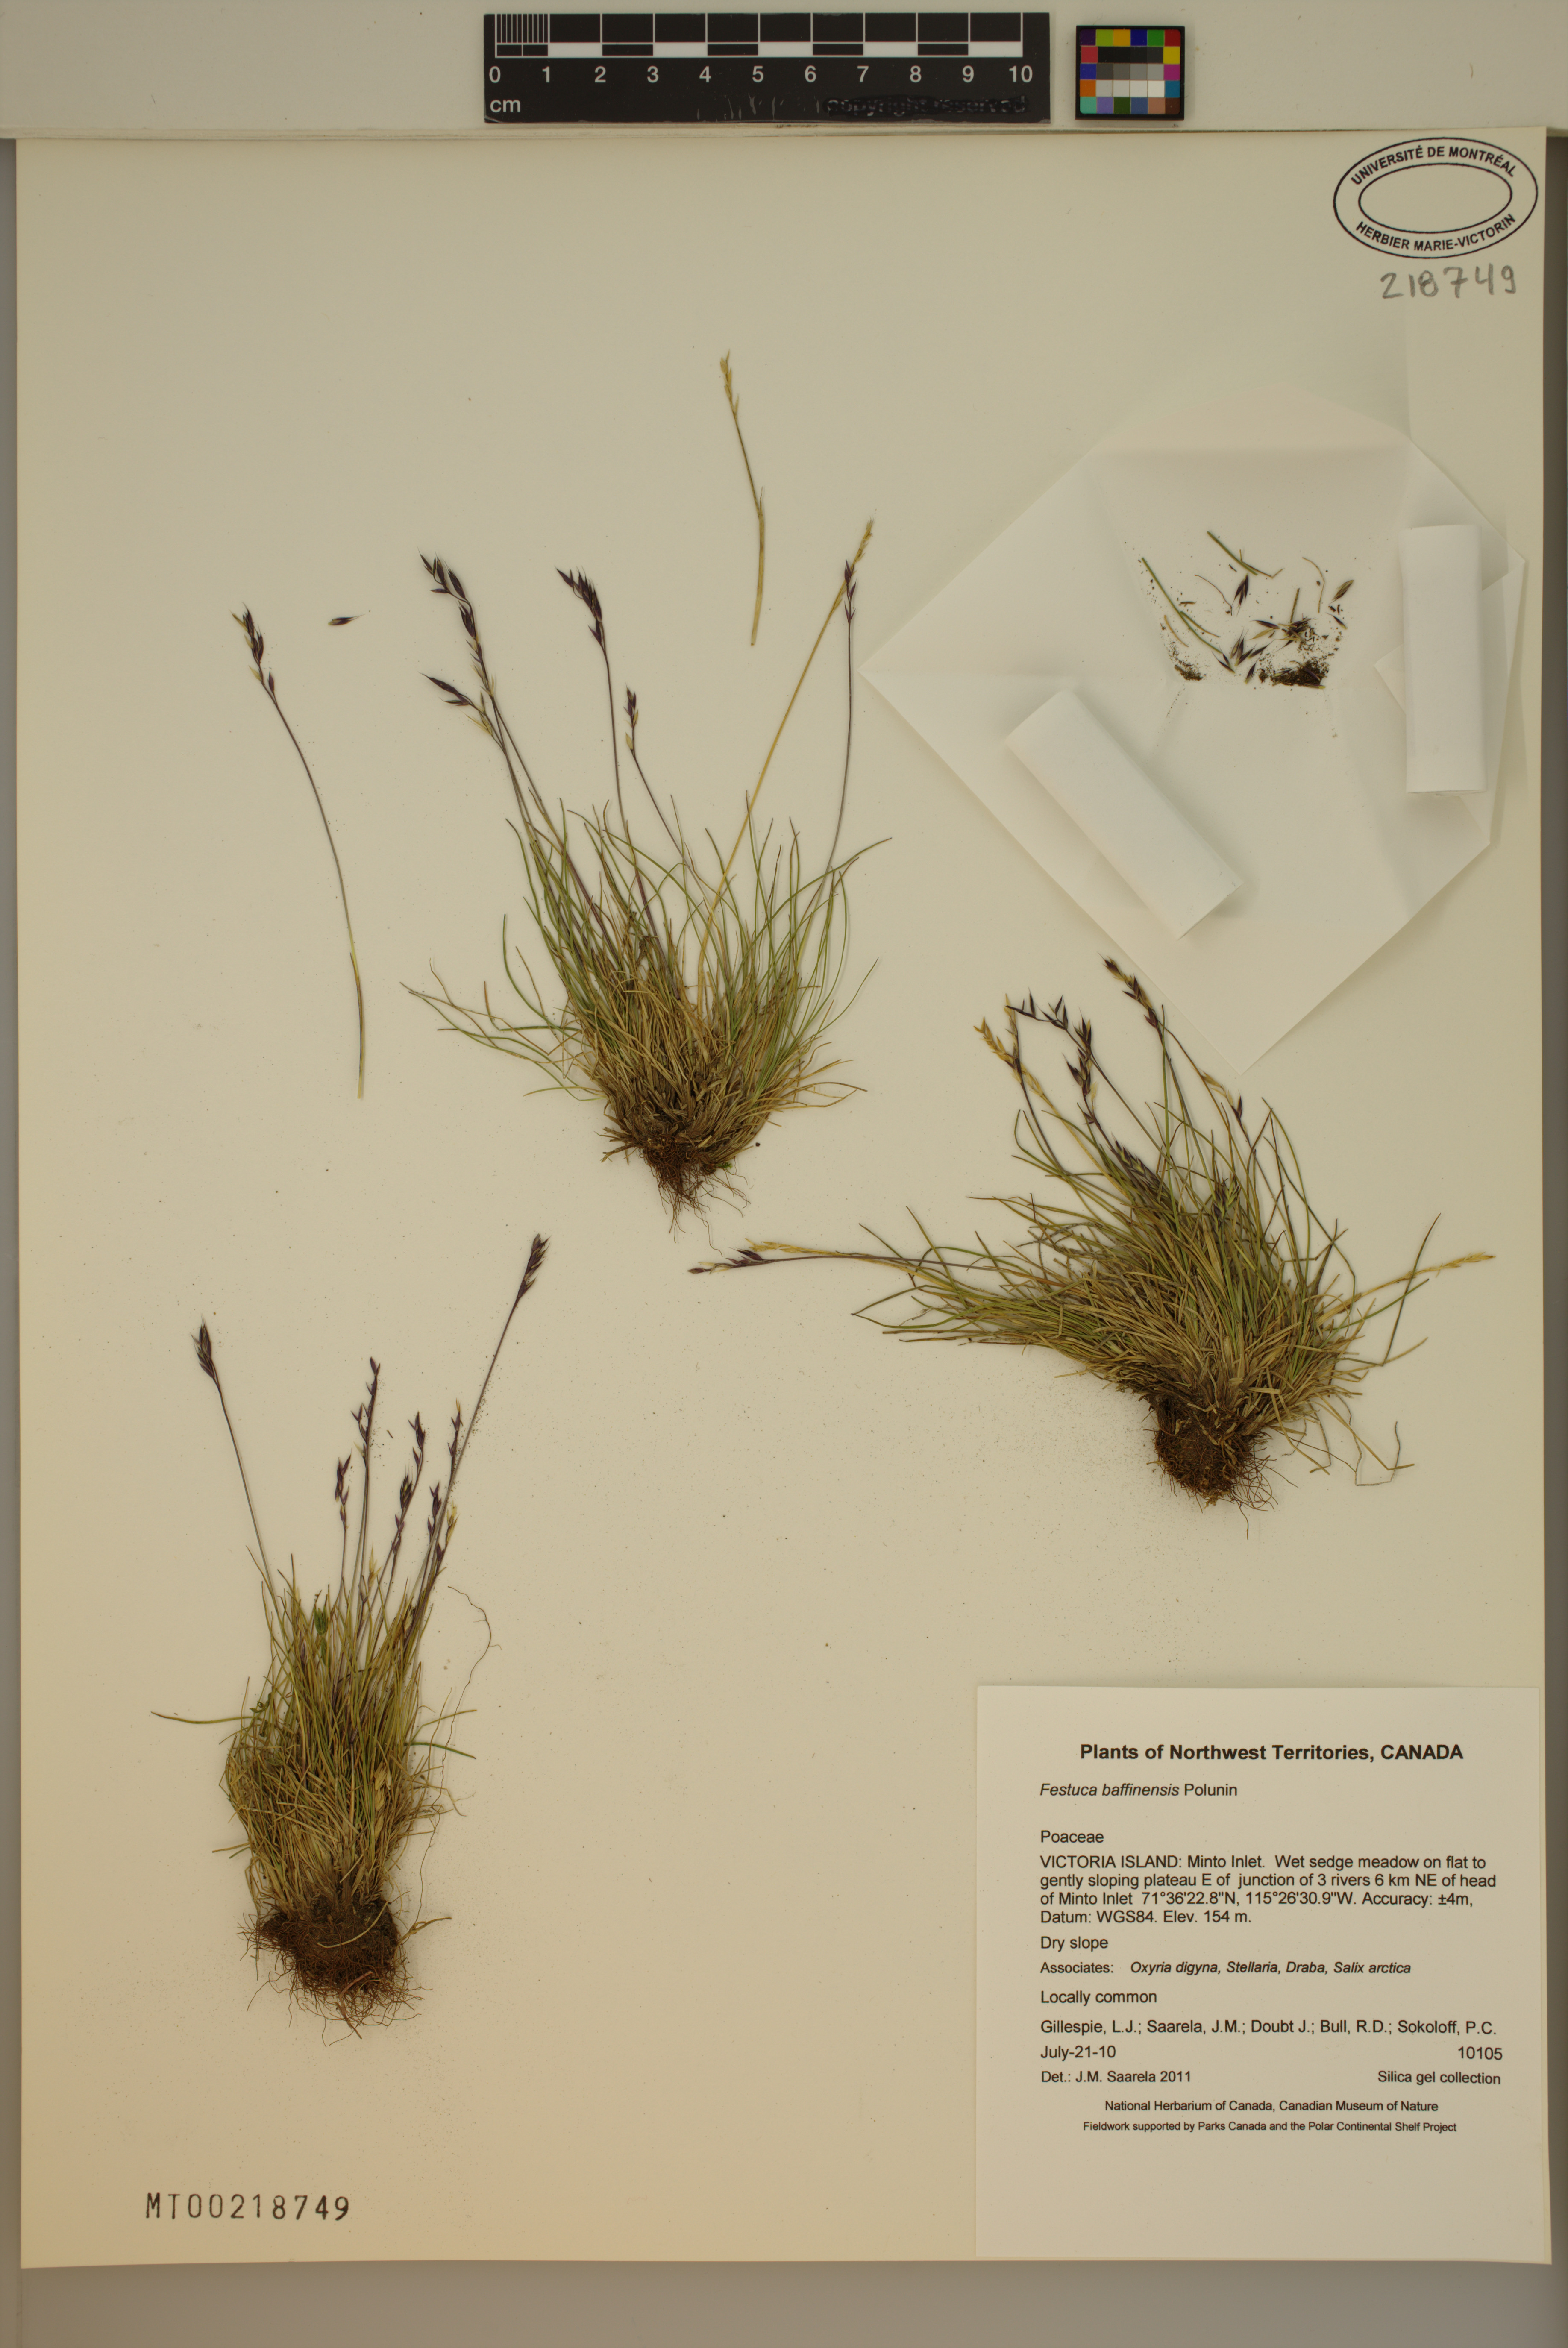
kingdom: Plantae
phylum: Tracheophyta
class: Liliopsida
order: Poales
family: Poaceae
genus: Festuca
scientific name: Festuca baffinensis
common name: Baffin island fescue
